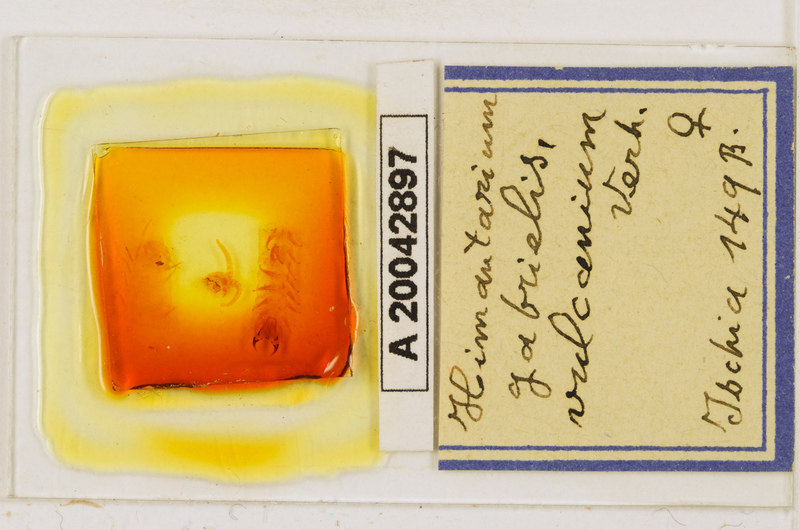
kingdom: Animalia
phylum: Arthropoda
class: Chilopoda
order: Geophilomorpha
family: Himantariidae
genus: Himantarium
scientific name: Himantarium gabrielis
